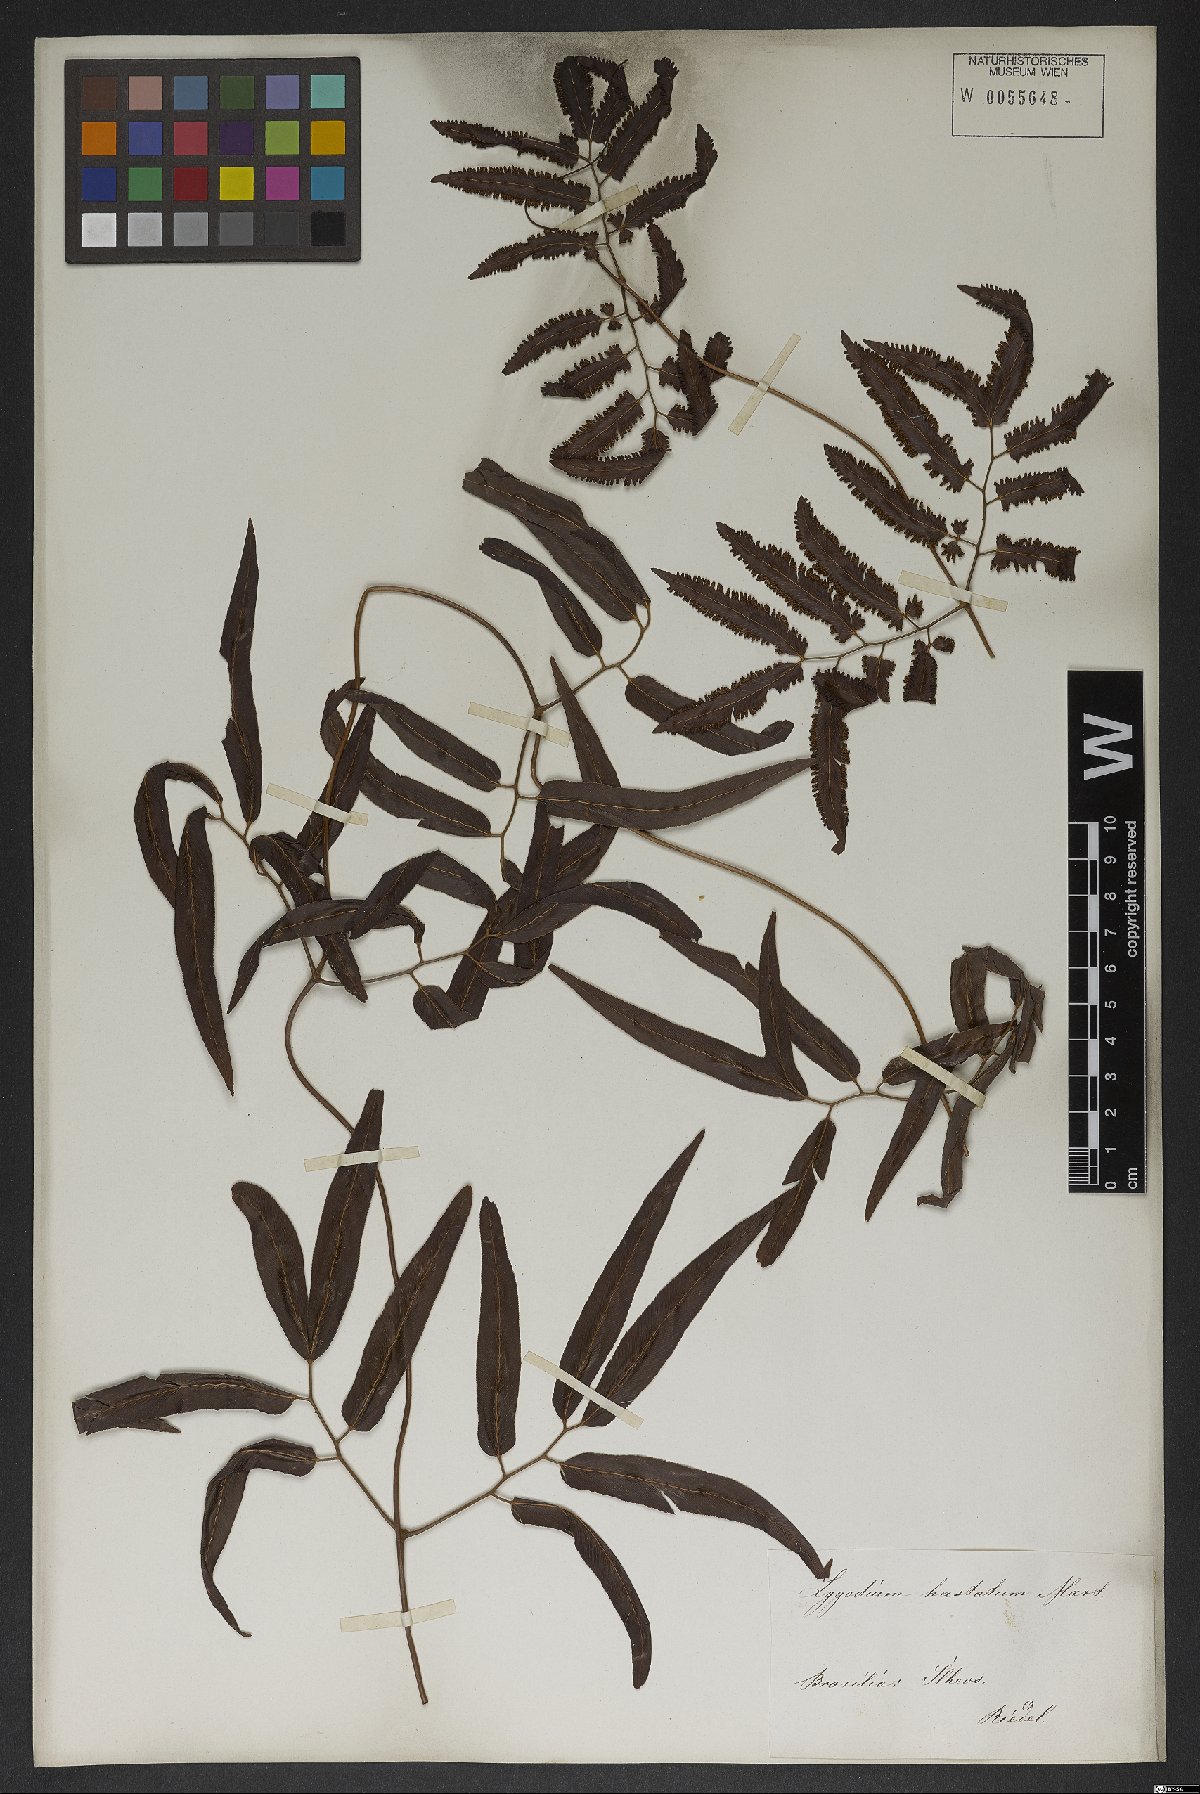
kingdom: Plantae
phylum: Tracheophyta
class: Polypodiopsida
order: Schizaeales
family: Lygodiaceae
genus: Lygodium
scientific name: Lygodium volubile
